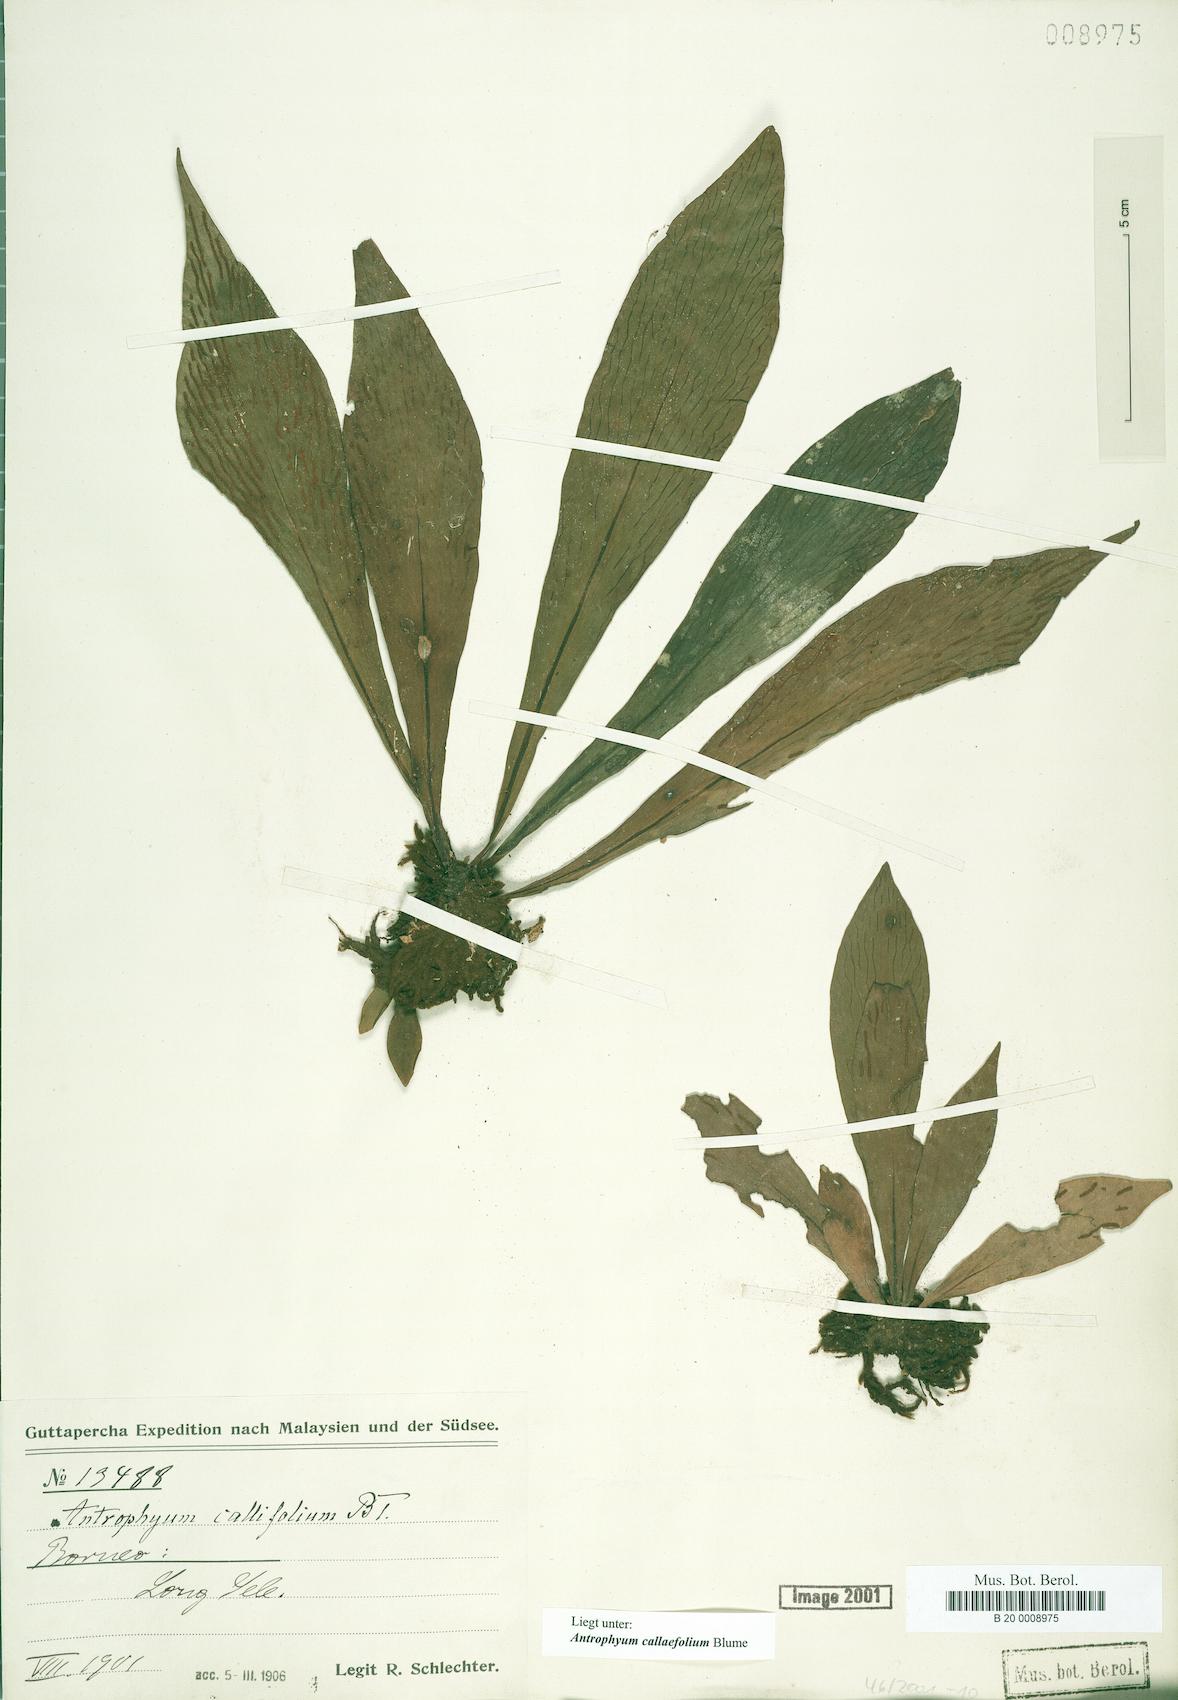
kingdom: Plantae
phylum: Tracheophyta
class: Polypodiopsida
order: Polypodiales
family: Pteridaceae
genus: Antrophyum
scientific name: Antrophyum callifolium
